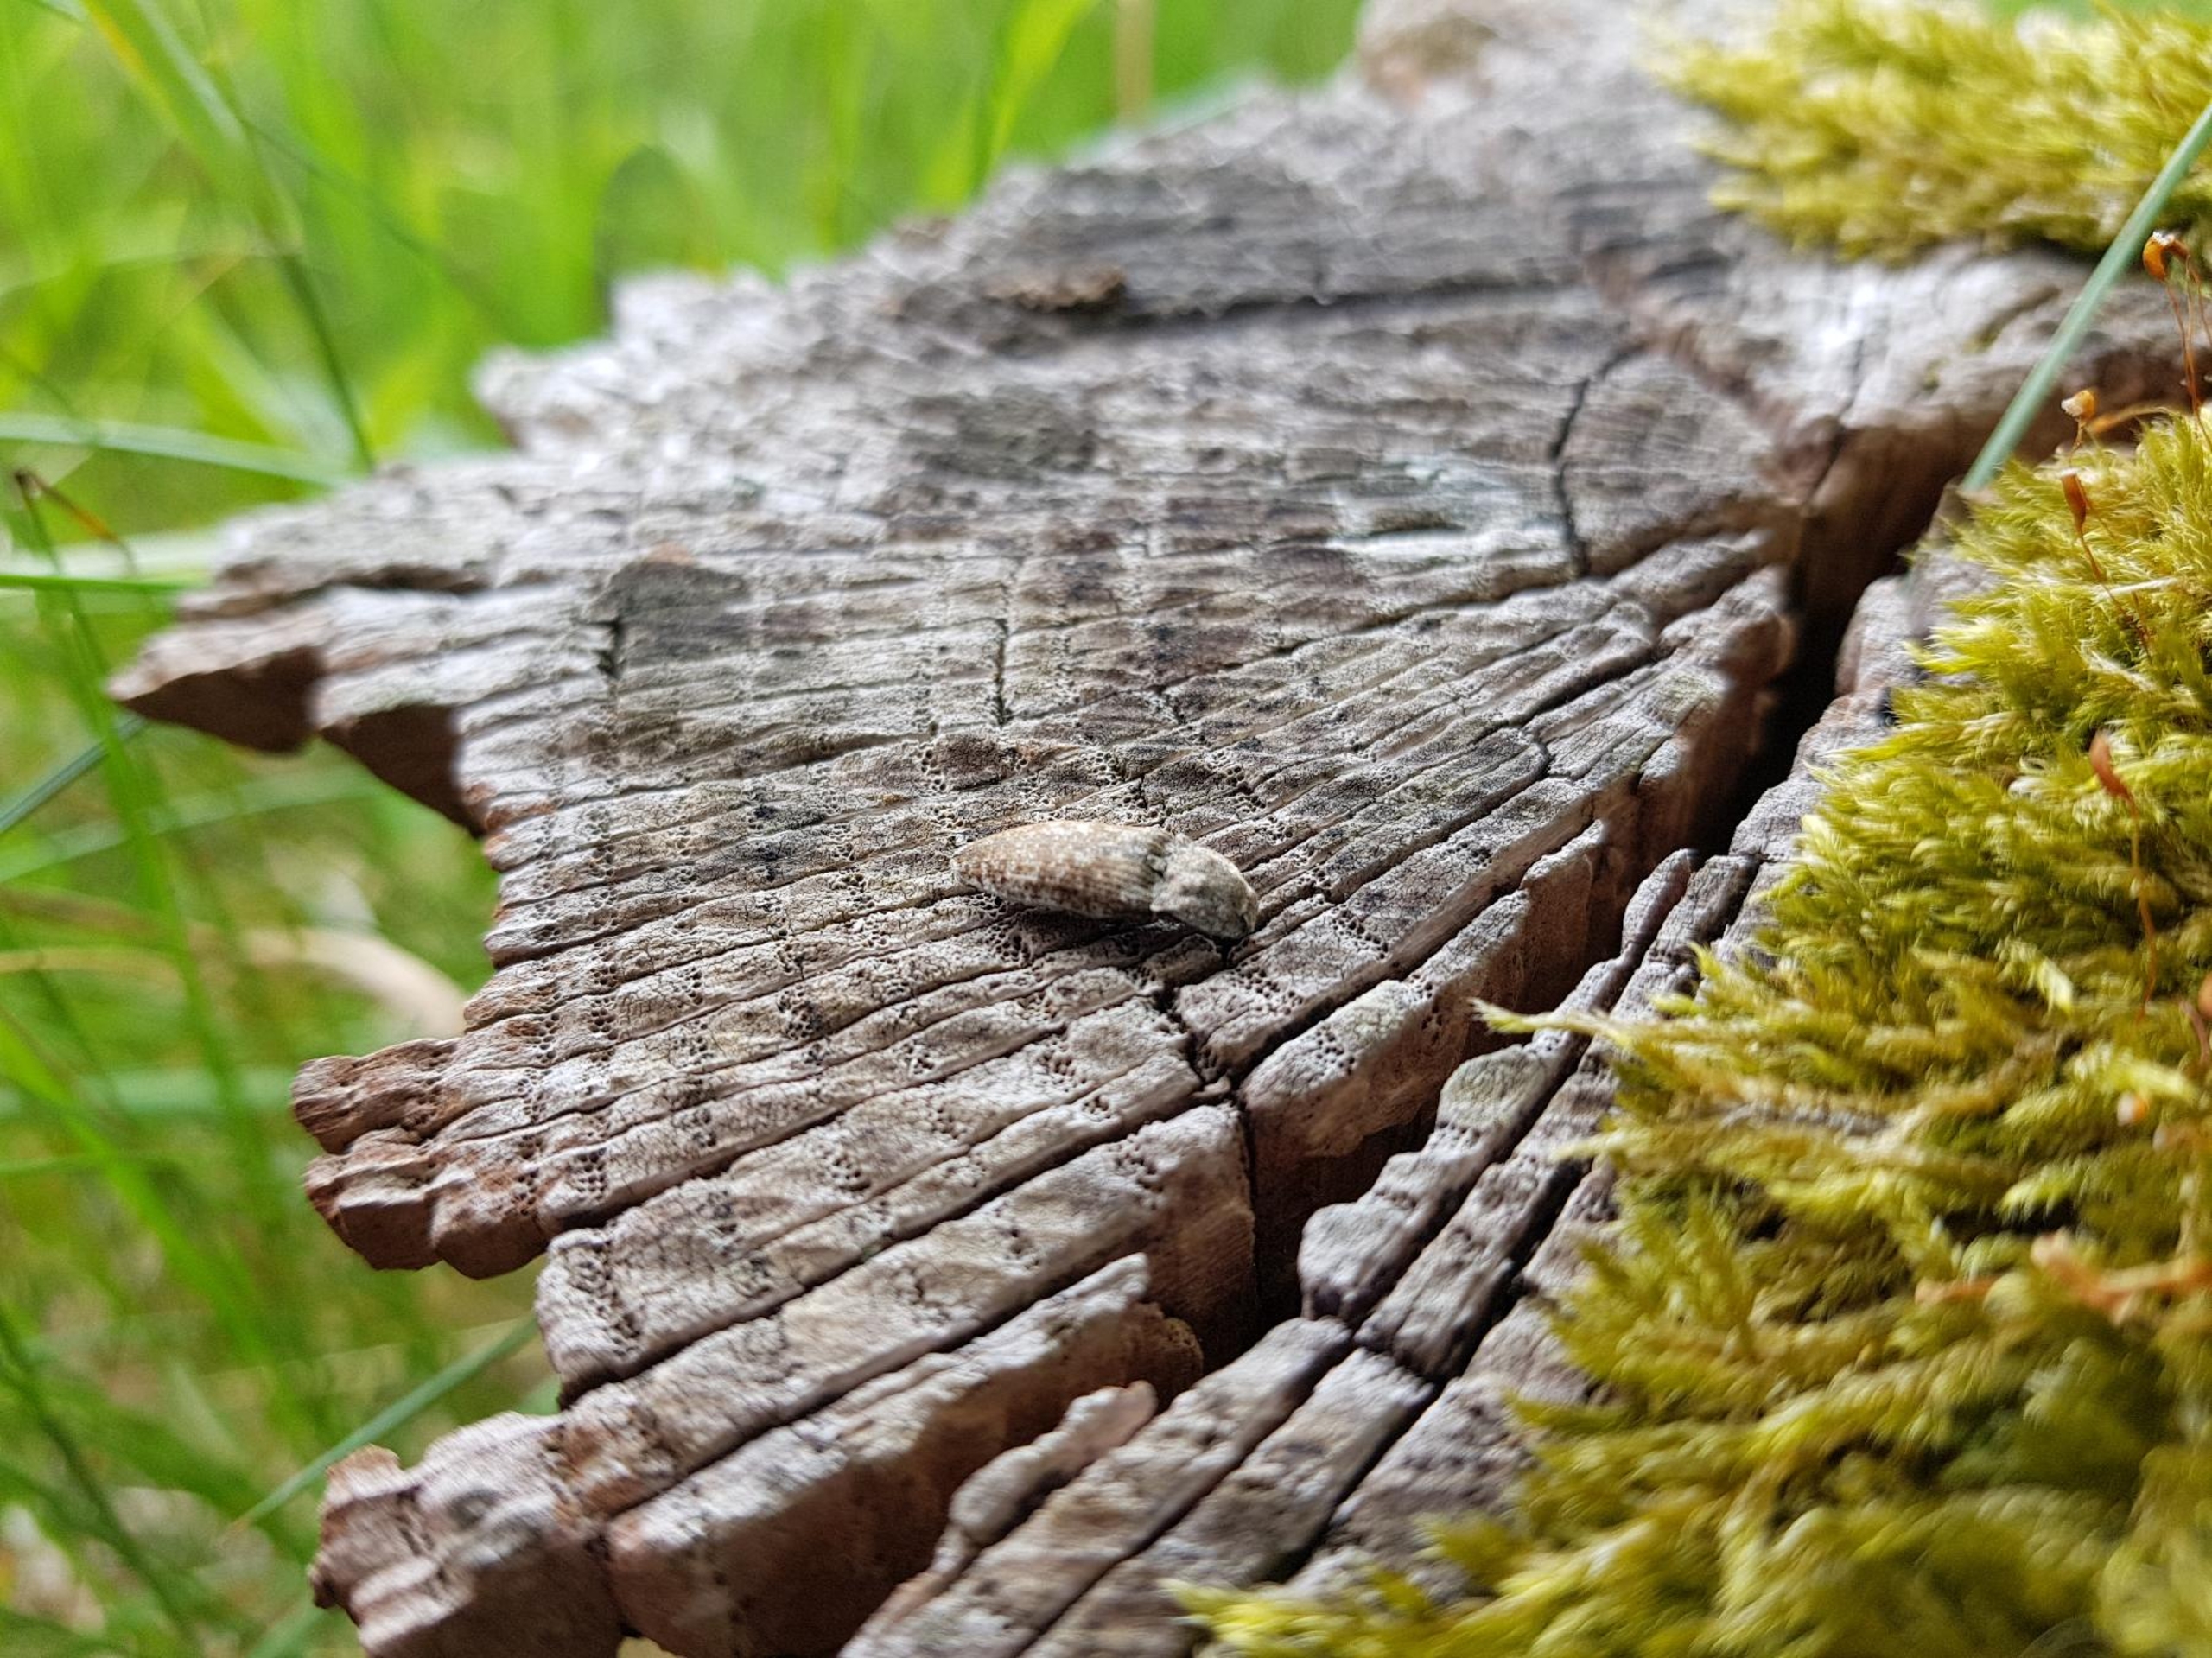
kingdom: Animalia
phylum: Arthropoda
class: Insecta
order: Coleoptera
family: Elateridae
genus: Agrypnus
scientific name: Agrypnus murinus
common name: Musegrå smælder
